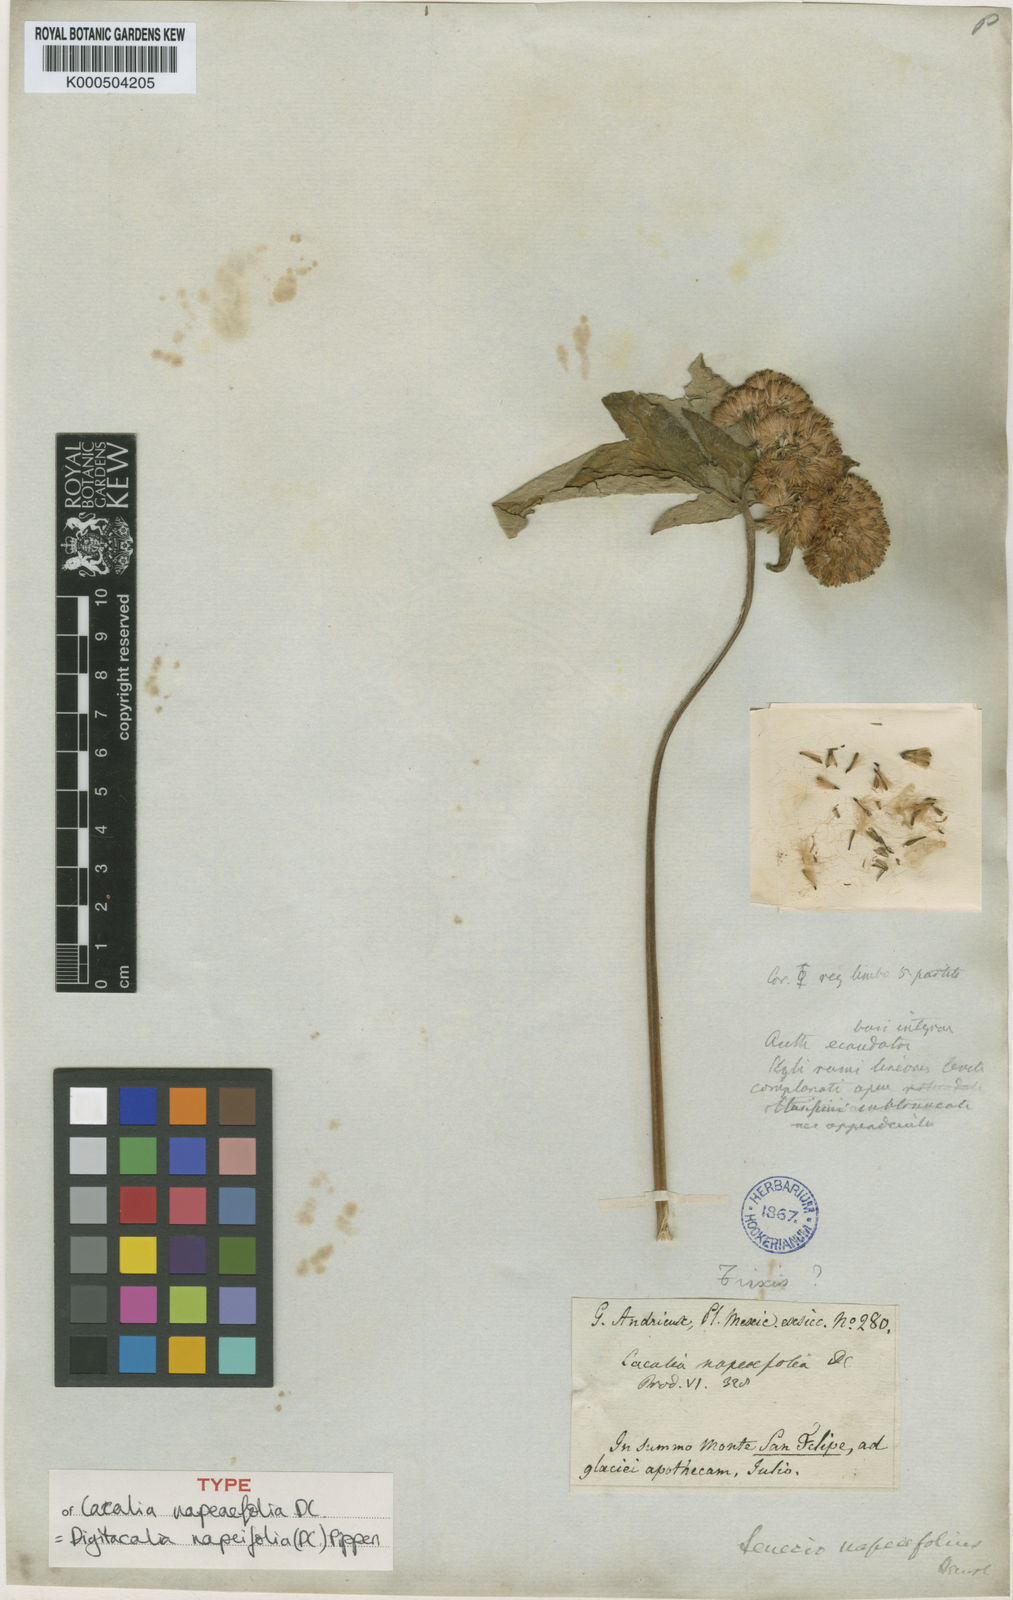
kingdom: Plantae
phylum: Tracheophyta
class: Magnoliopsida
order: Asterales
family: Asteraceae
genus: Digitacalia
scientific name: Digitacalia napeifolia
